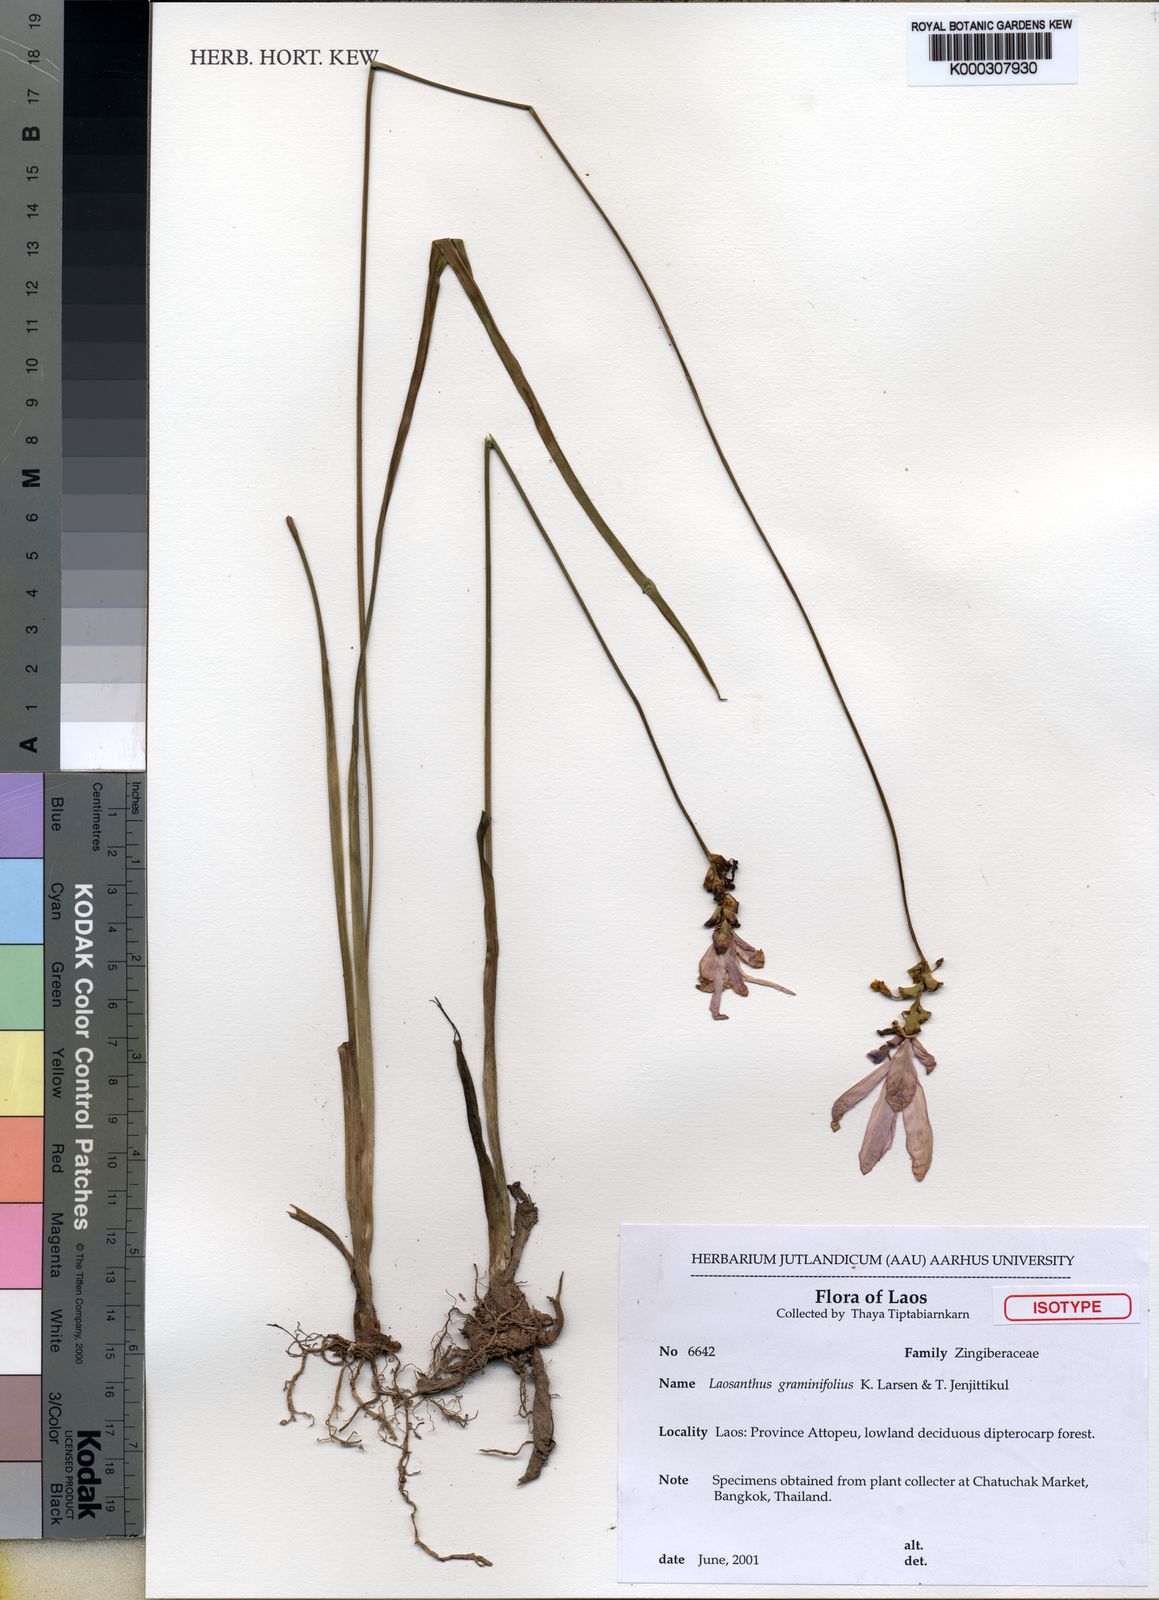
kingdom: Plantae
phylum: Tracheophyta
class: Liliopsida
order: Zingiberales
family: Zingiberaceae
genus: Curcuma
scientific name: Curcuma graminifolia
